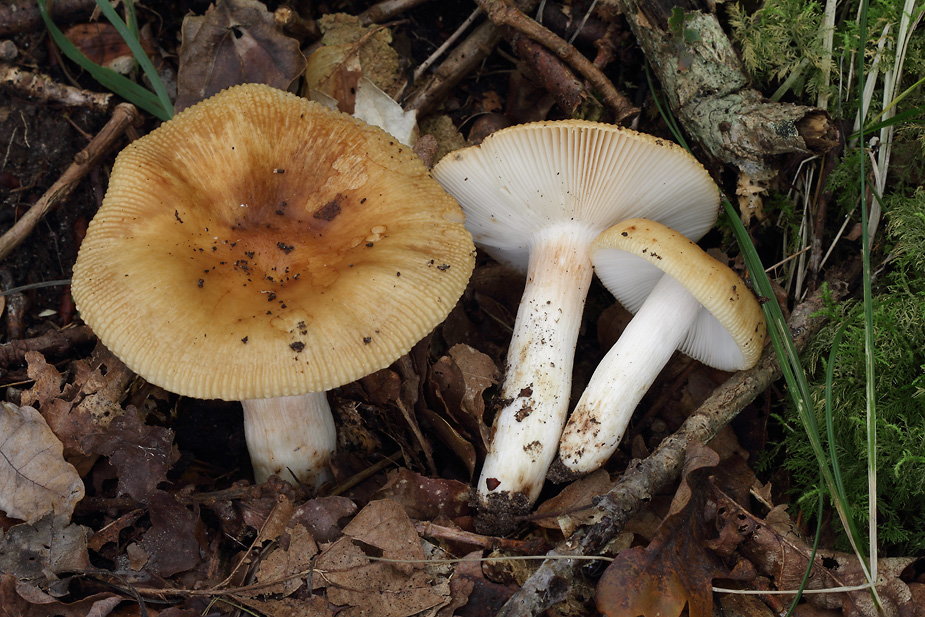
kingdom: Fungi
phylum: Basidiomycota
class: Agaricomycetes
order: Russulales
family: Russulaceae
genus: Russula
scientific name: Russula grata
